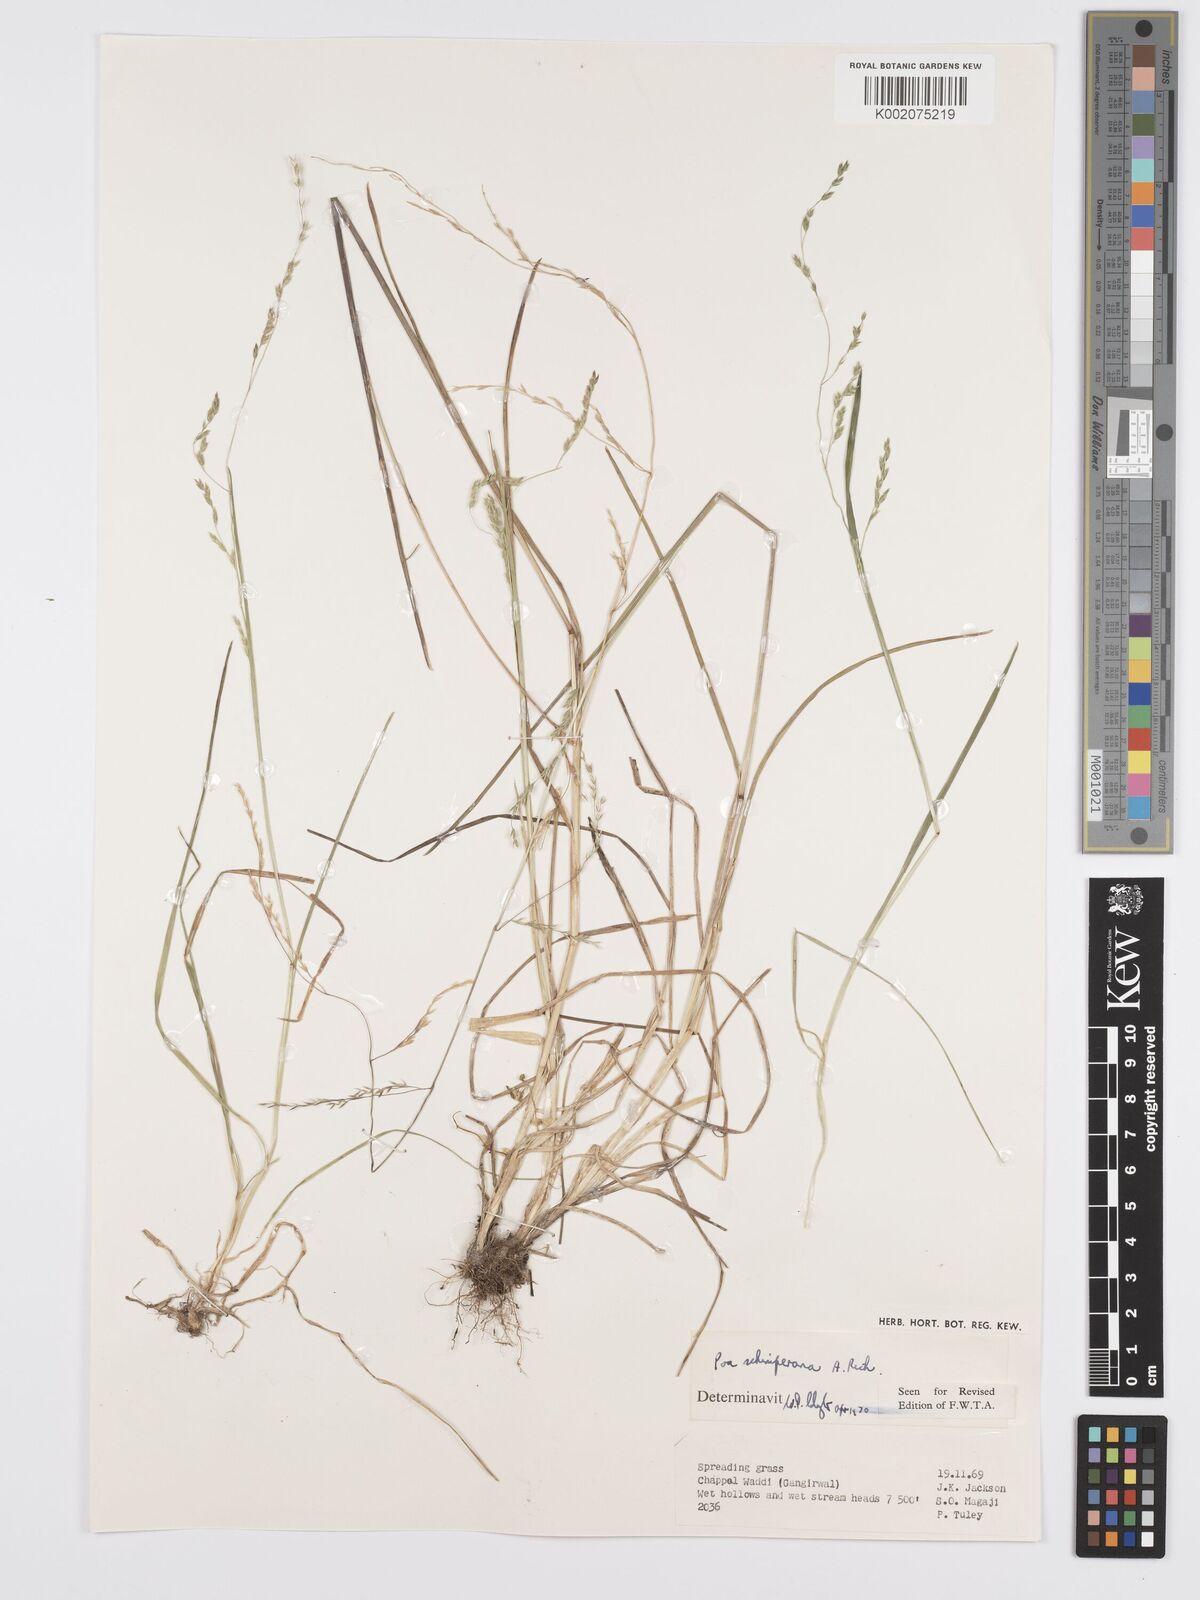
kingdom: Plantae
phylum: Tracheophyta
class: Liliopsida
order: Poales
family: Poaceae
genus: Poa
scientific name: Poa schimperiana
